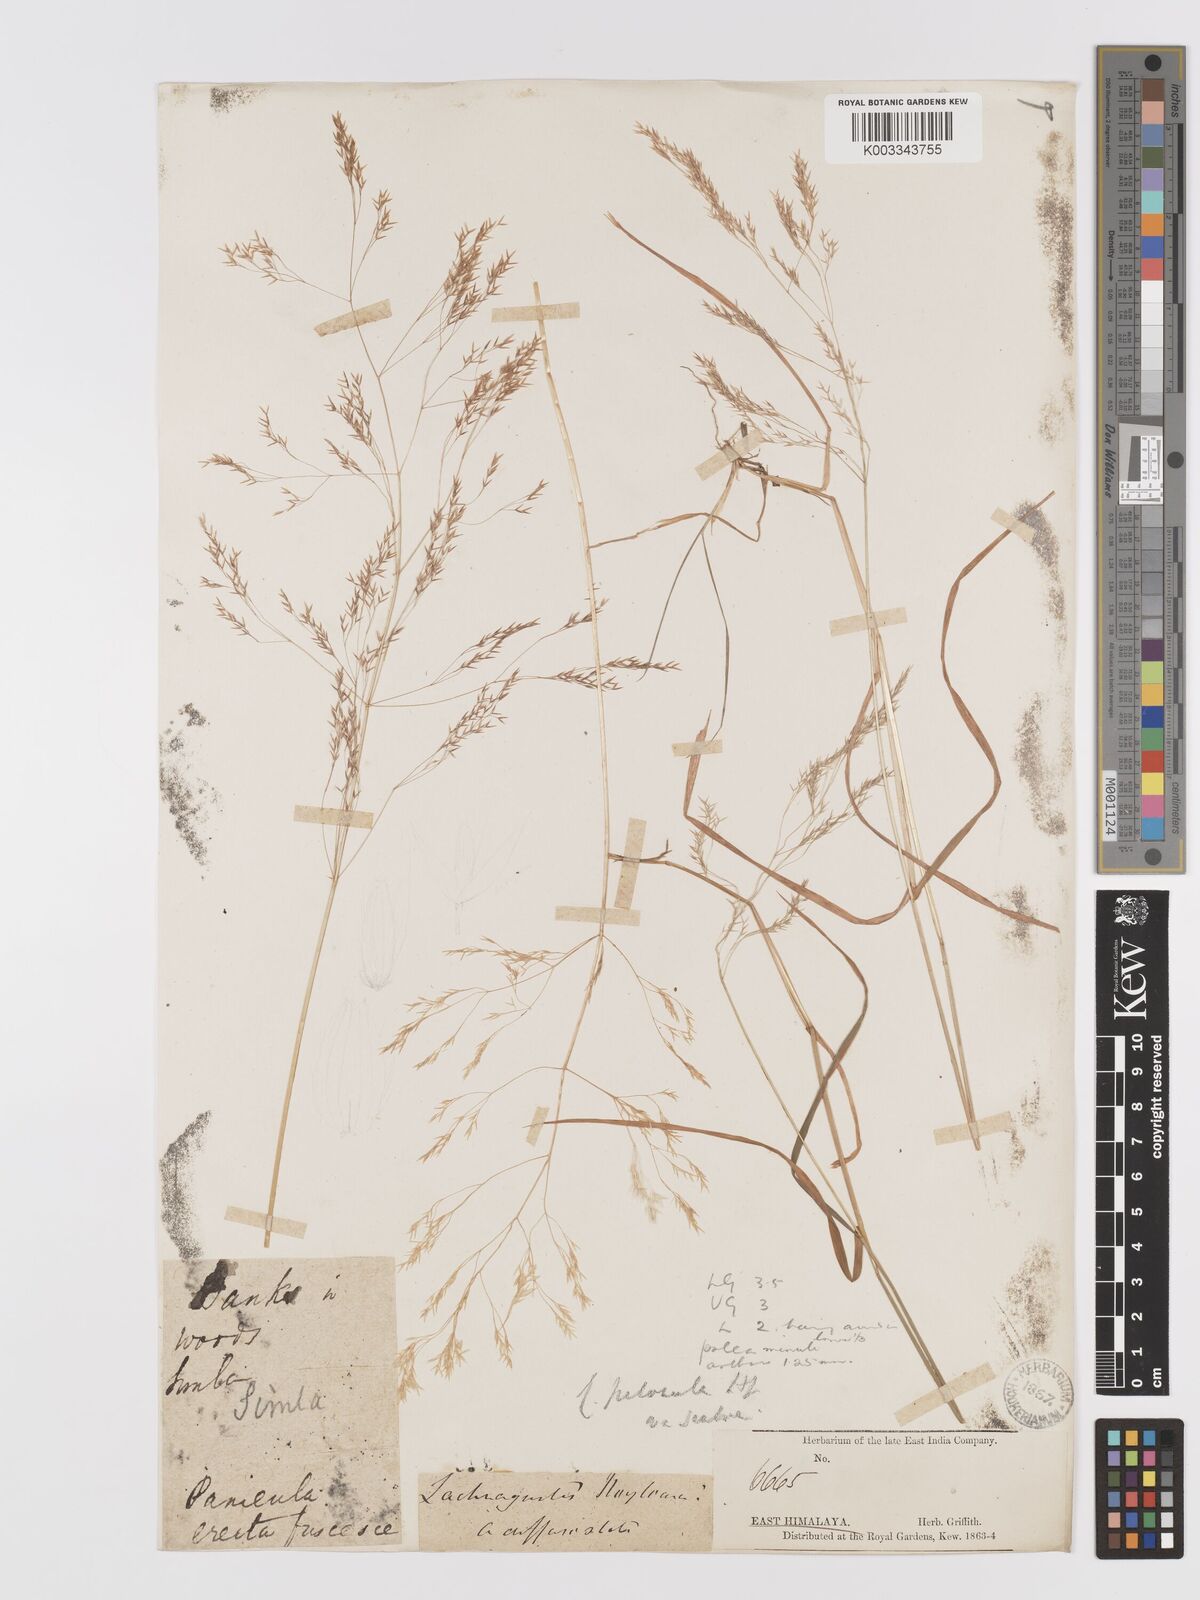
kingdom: Plantae
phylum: Tracheophyta
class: Liliopsida
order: Poales
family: Poaceae
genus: Agrostis
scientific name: Agrostis pilosula
